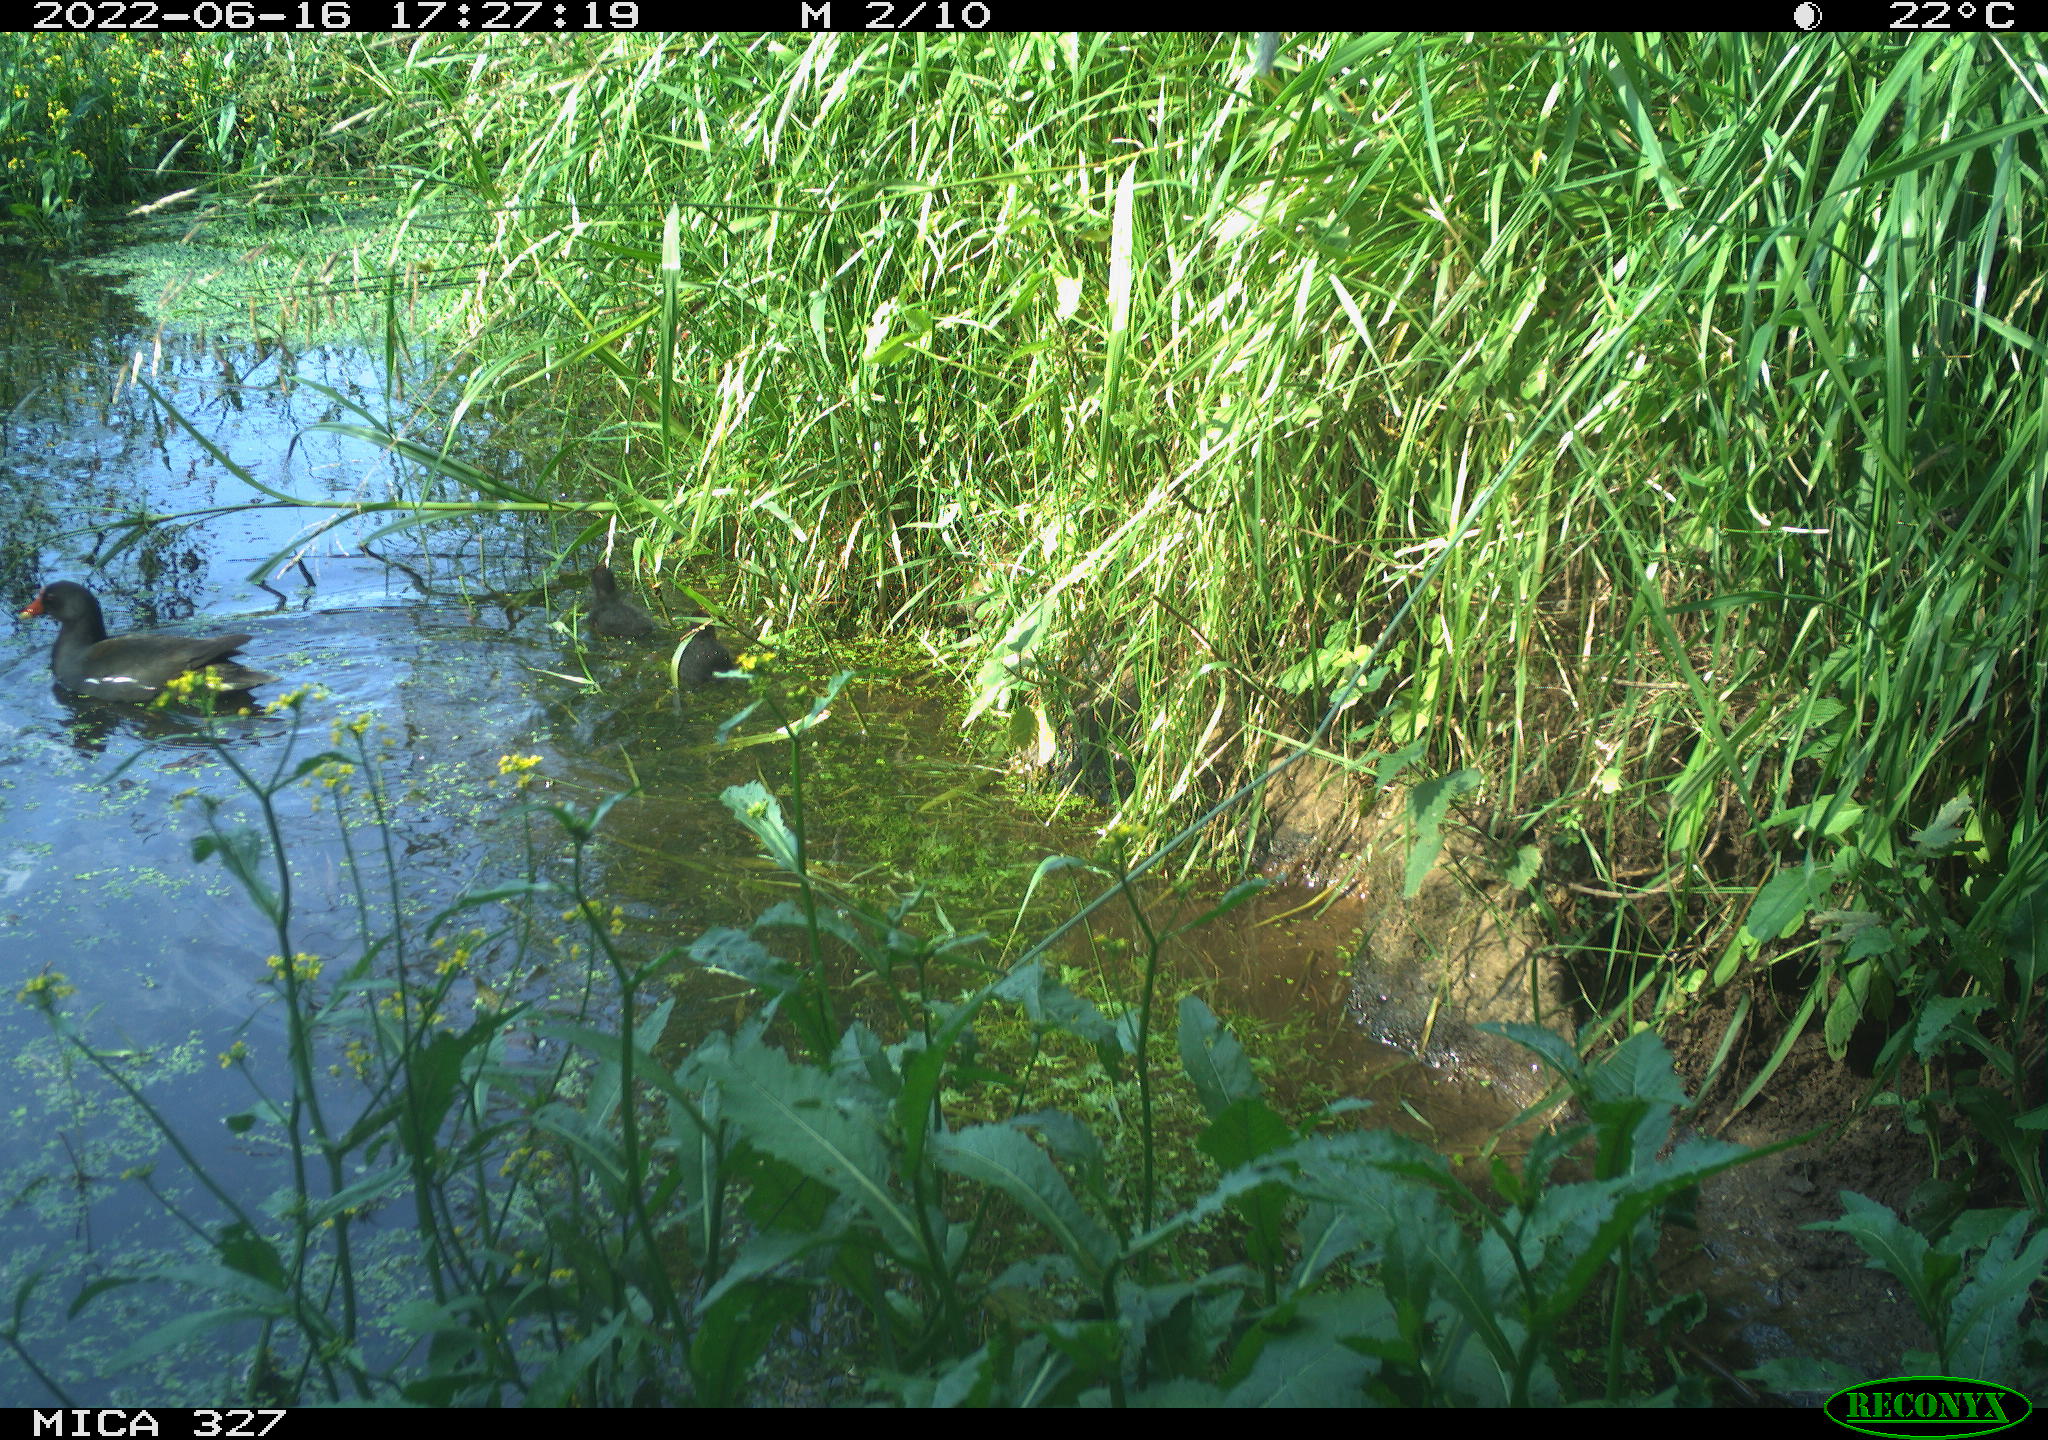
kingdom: Animalia
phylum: Chordata
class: Aves
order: Gruiformes
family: Rallidae
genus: Gallinula
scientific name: Gallinula chloropus
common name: Common moorhen
